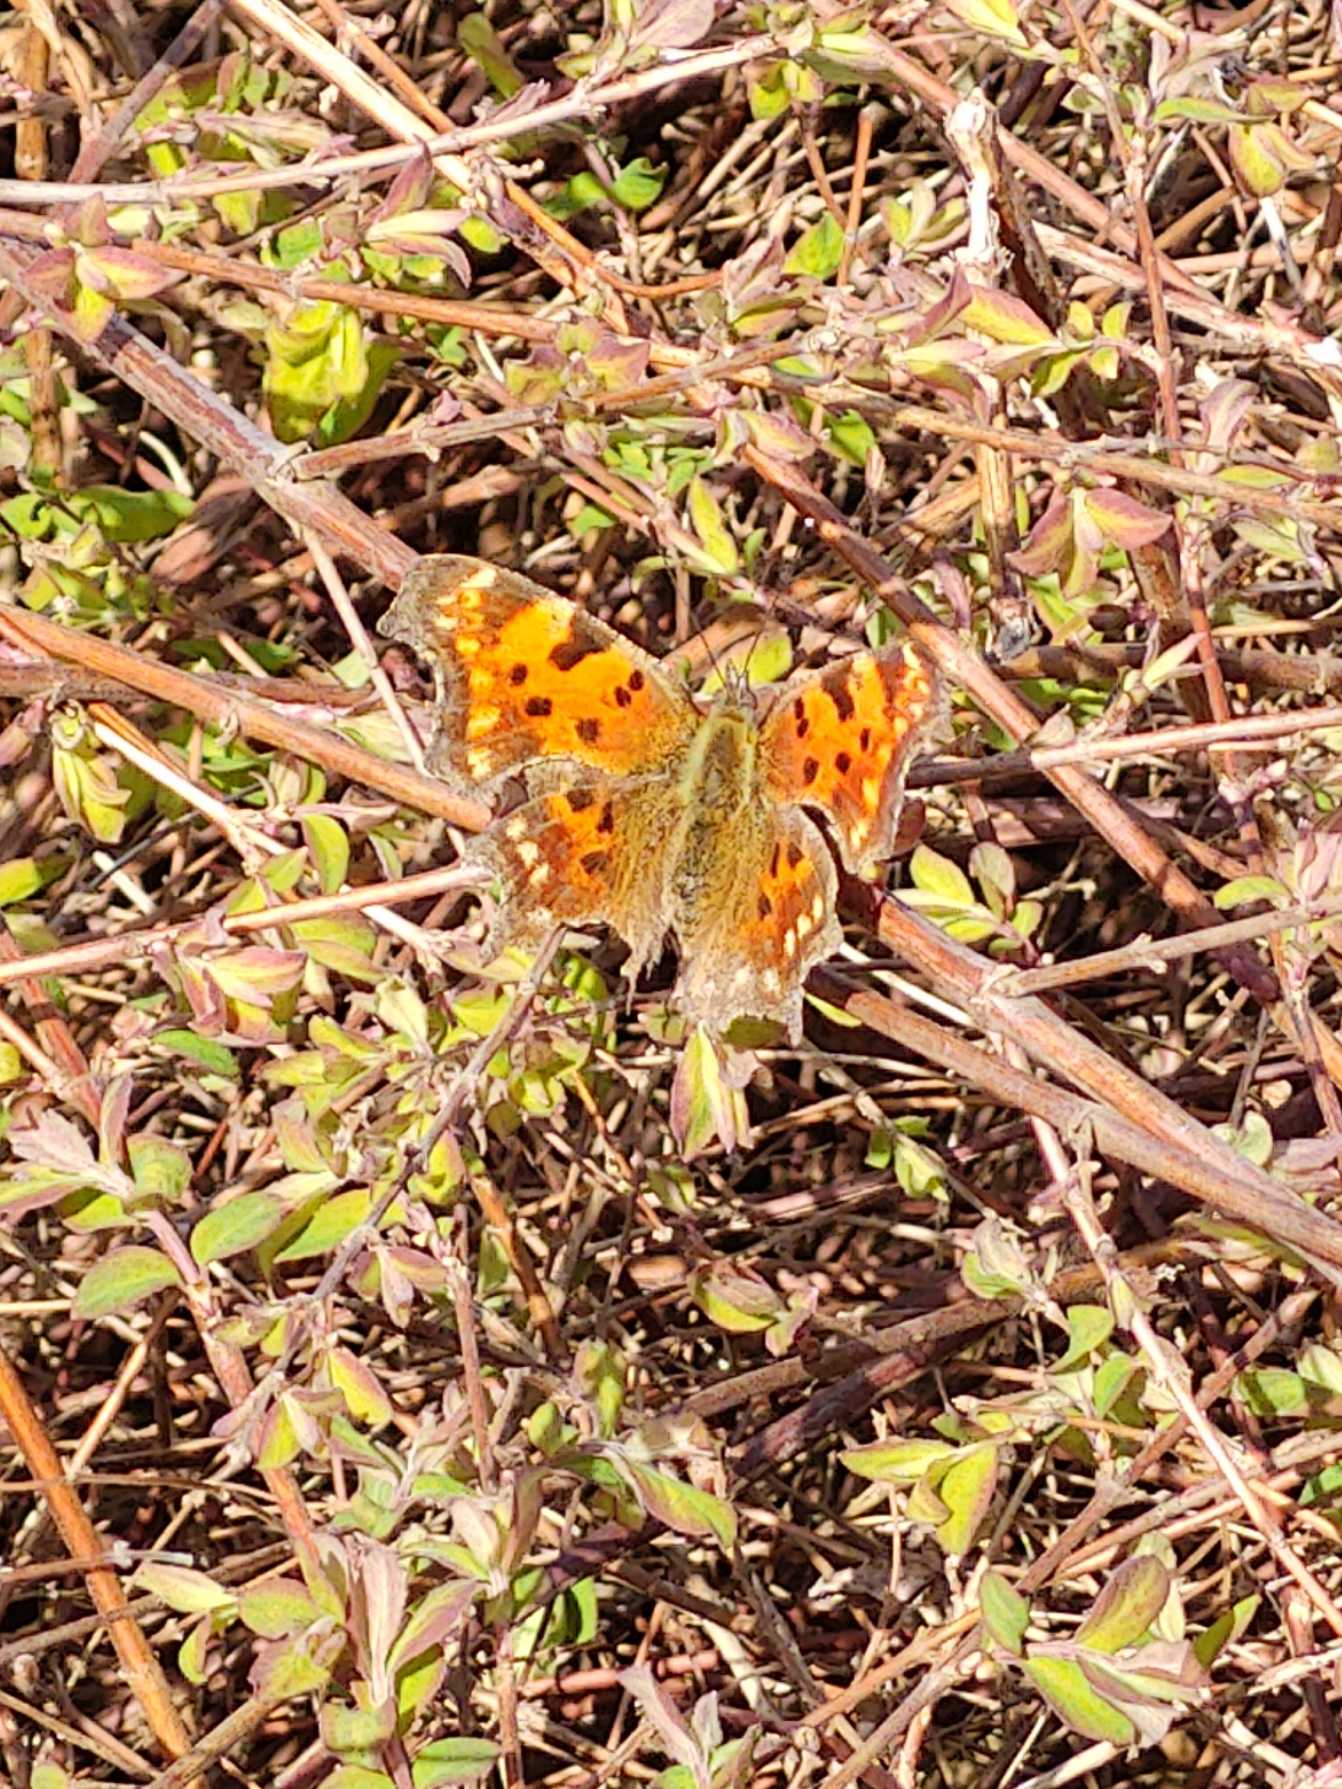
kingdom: Animalia
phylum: Arthropoda
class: Insecta
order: Lepidoptera
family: Nymphalidae
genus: Polygonia
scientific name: Polygonia c-album
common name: Det hvide C
